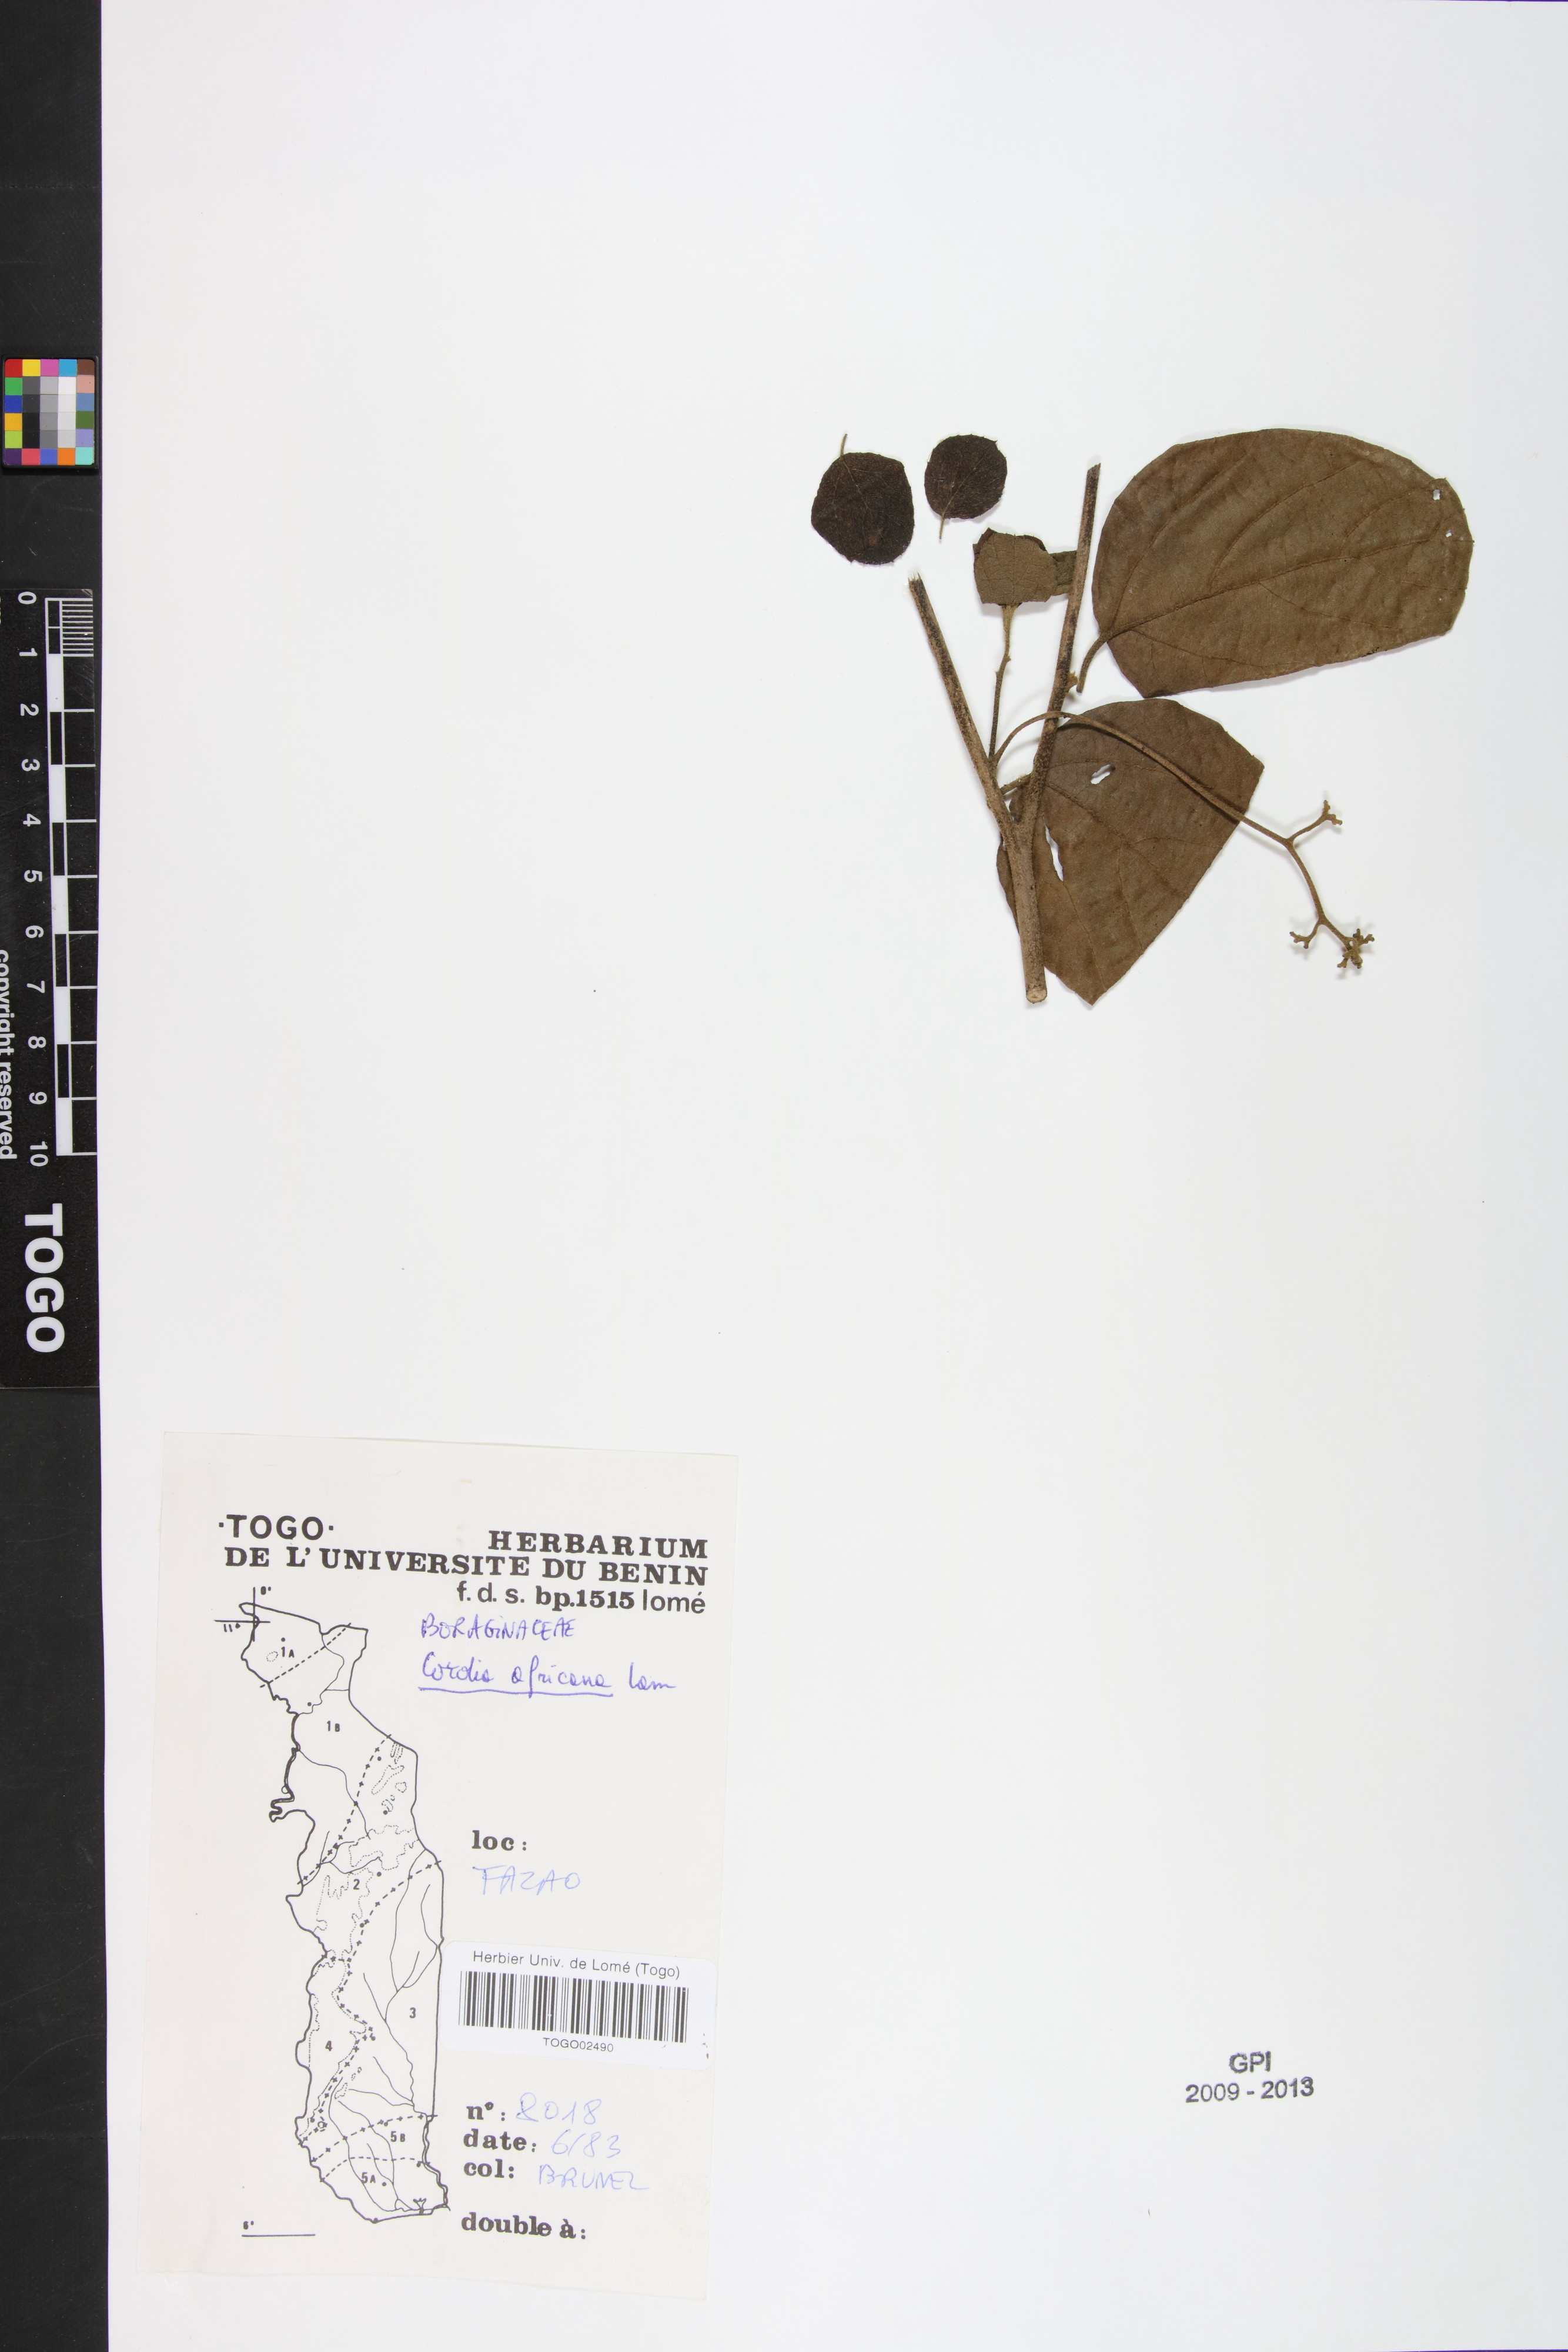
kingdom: Plantae
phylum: Tracheophyta
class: Magnoliopsida
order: Boraginales
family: Cordiaceae
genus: Cordia
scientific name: Cordia africana
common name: Large-leaved cordia
